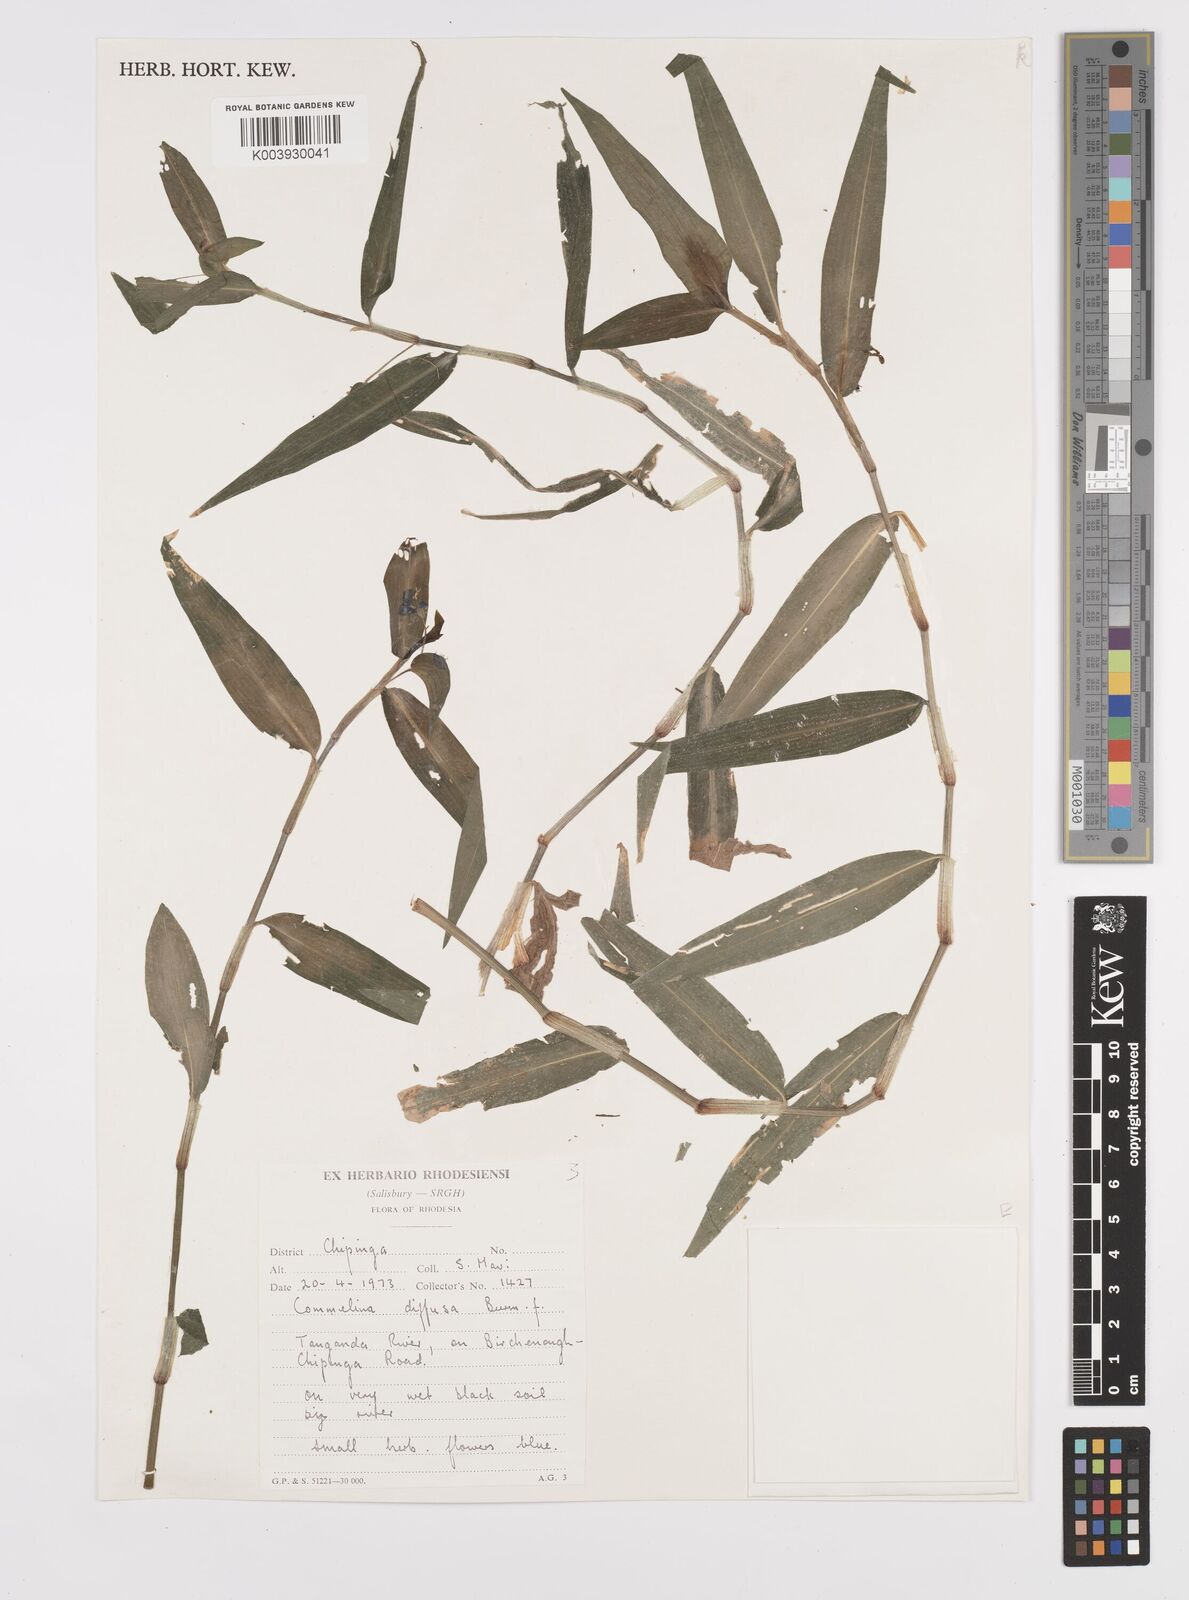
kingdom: Plantae
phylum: Tracheophyta
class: Liliopsida
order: Commelinales
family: Commelinaceae
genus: Commelina
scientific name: Commelina diffusa
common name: Climbing dayflower
